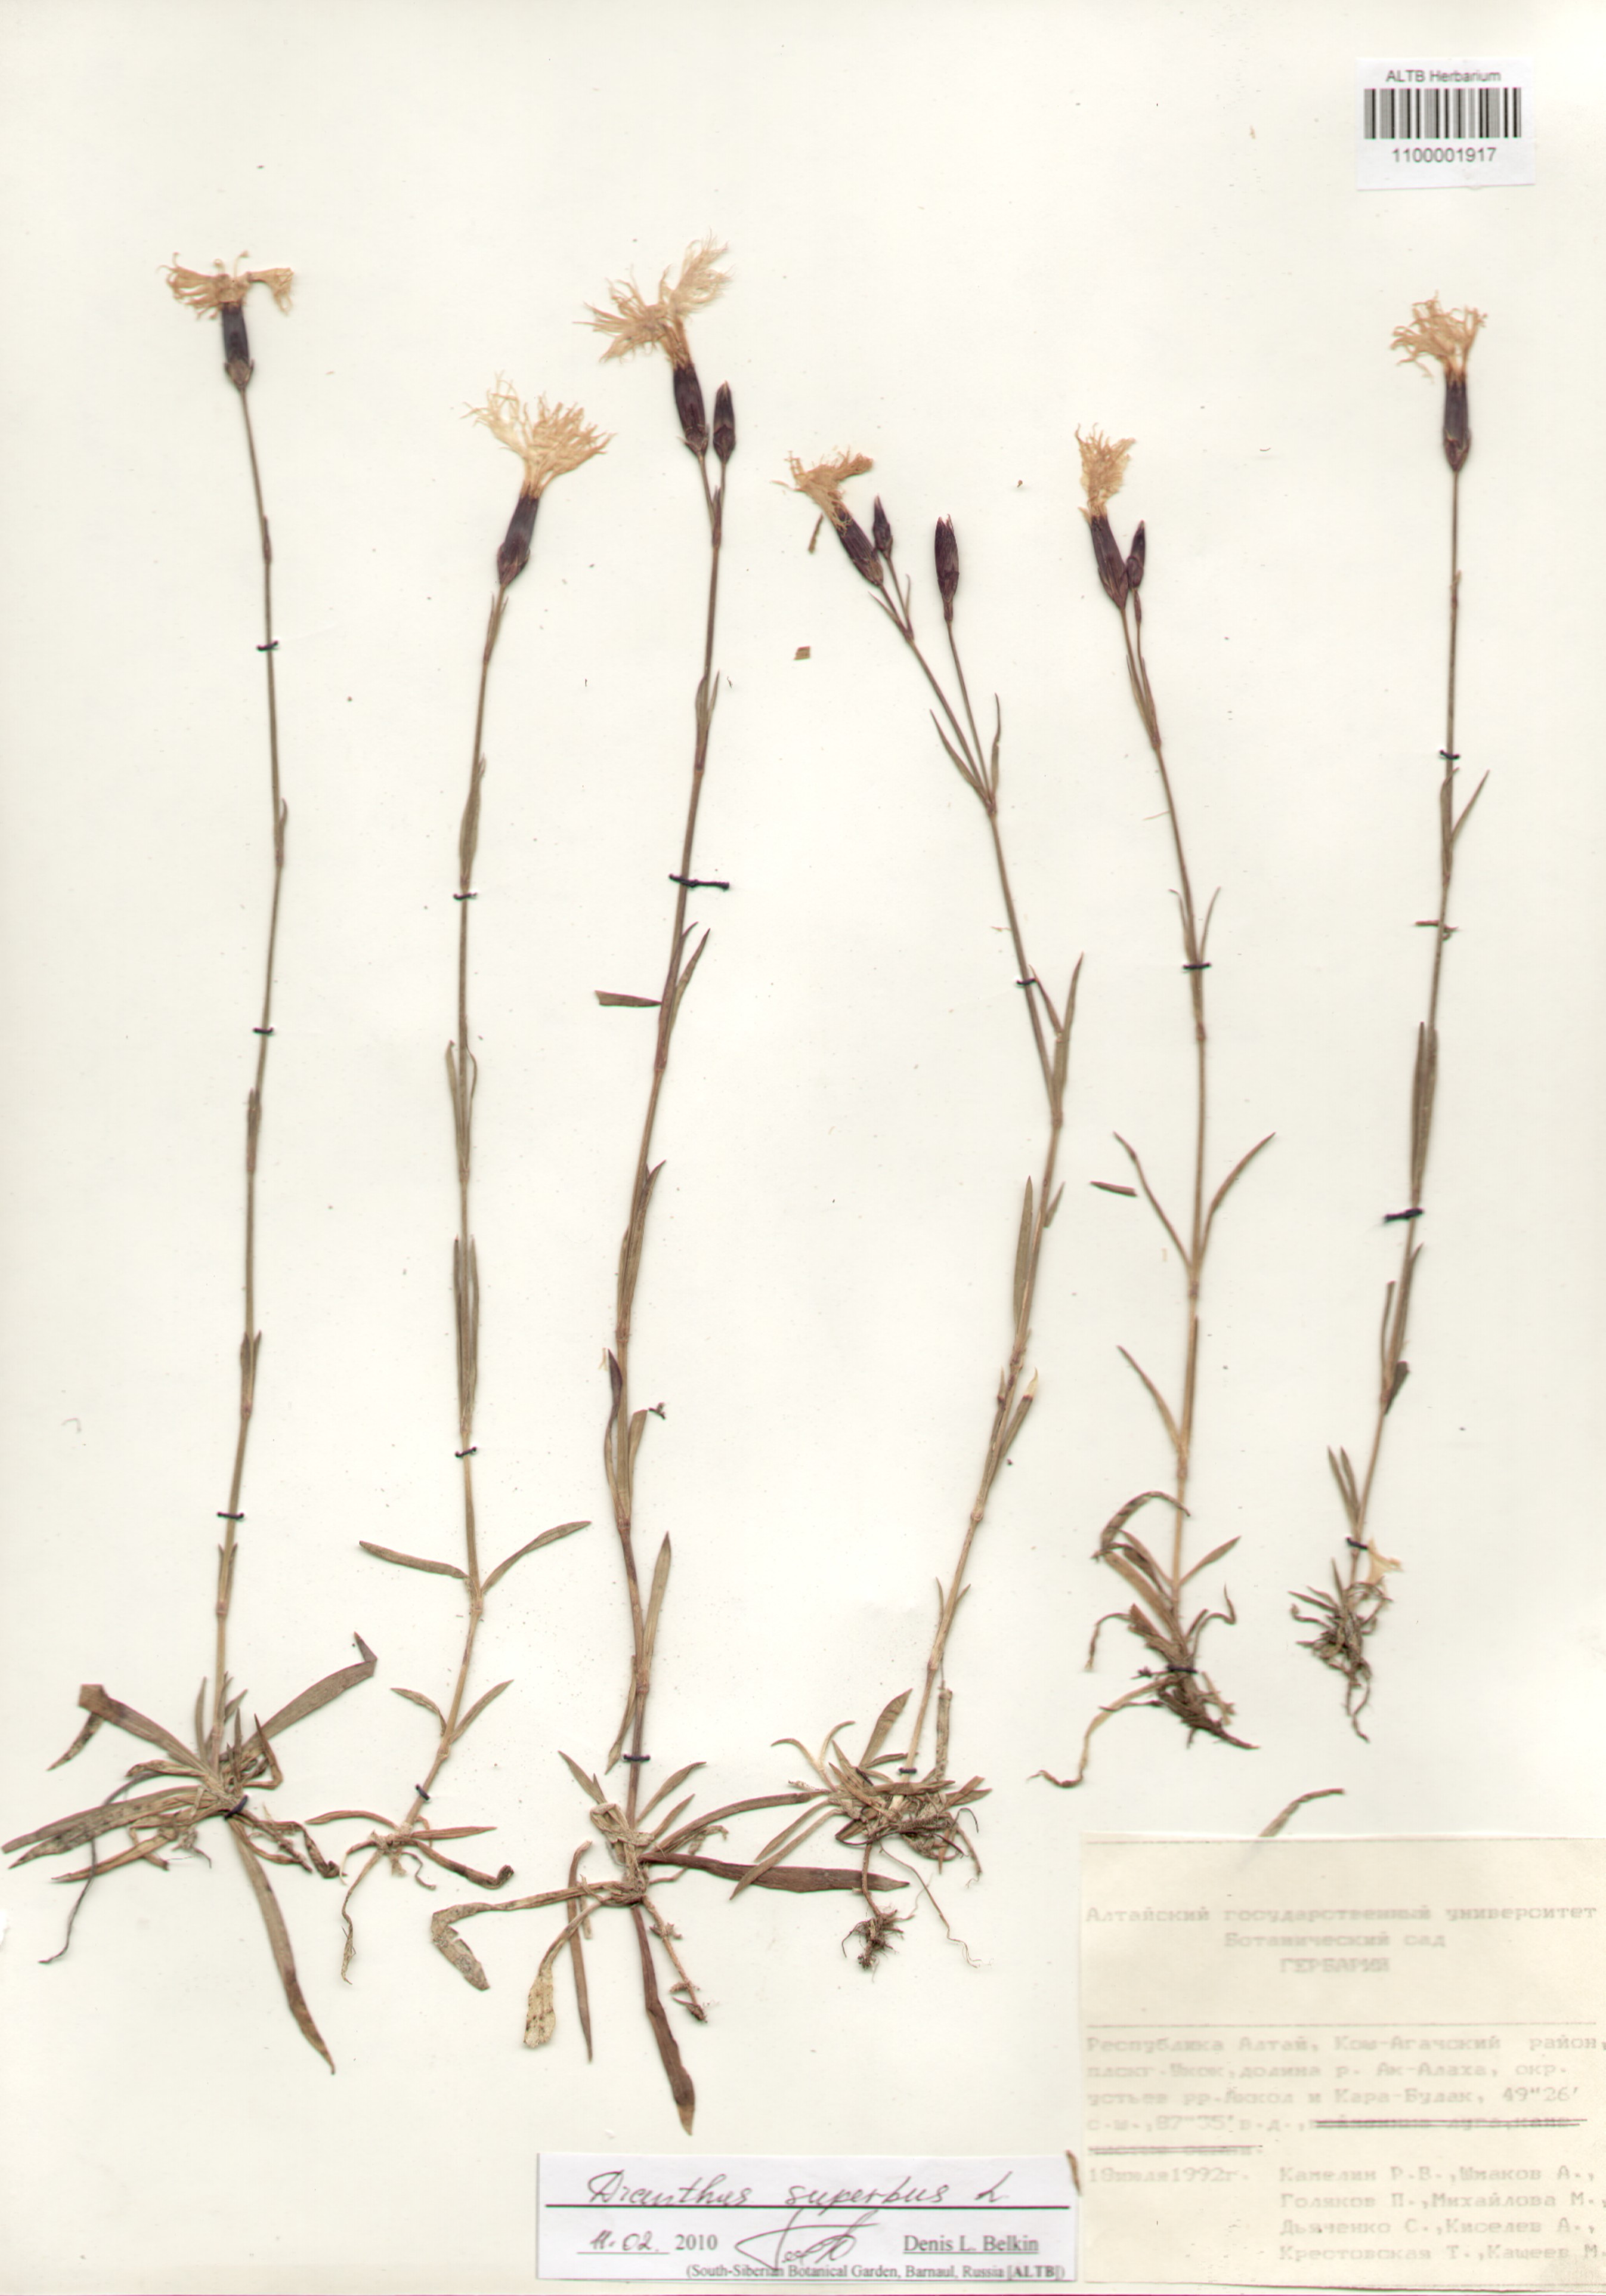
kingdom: Plantae
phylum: Tracheophyta
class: Magnoliopsida
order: Caryophyllales
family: Caryophyllaceae
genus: Dianthus
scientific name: Dianthus superbus
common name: Fringed pink
